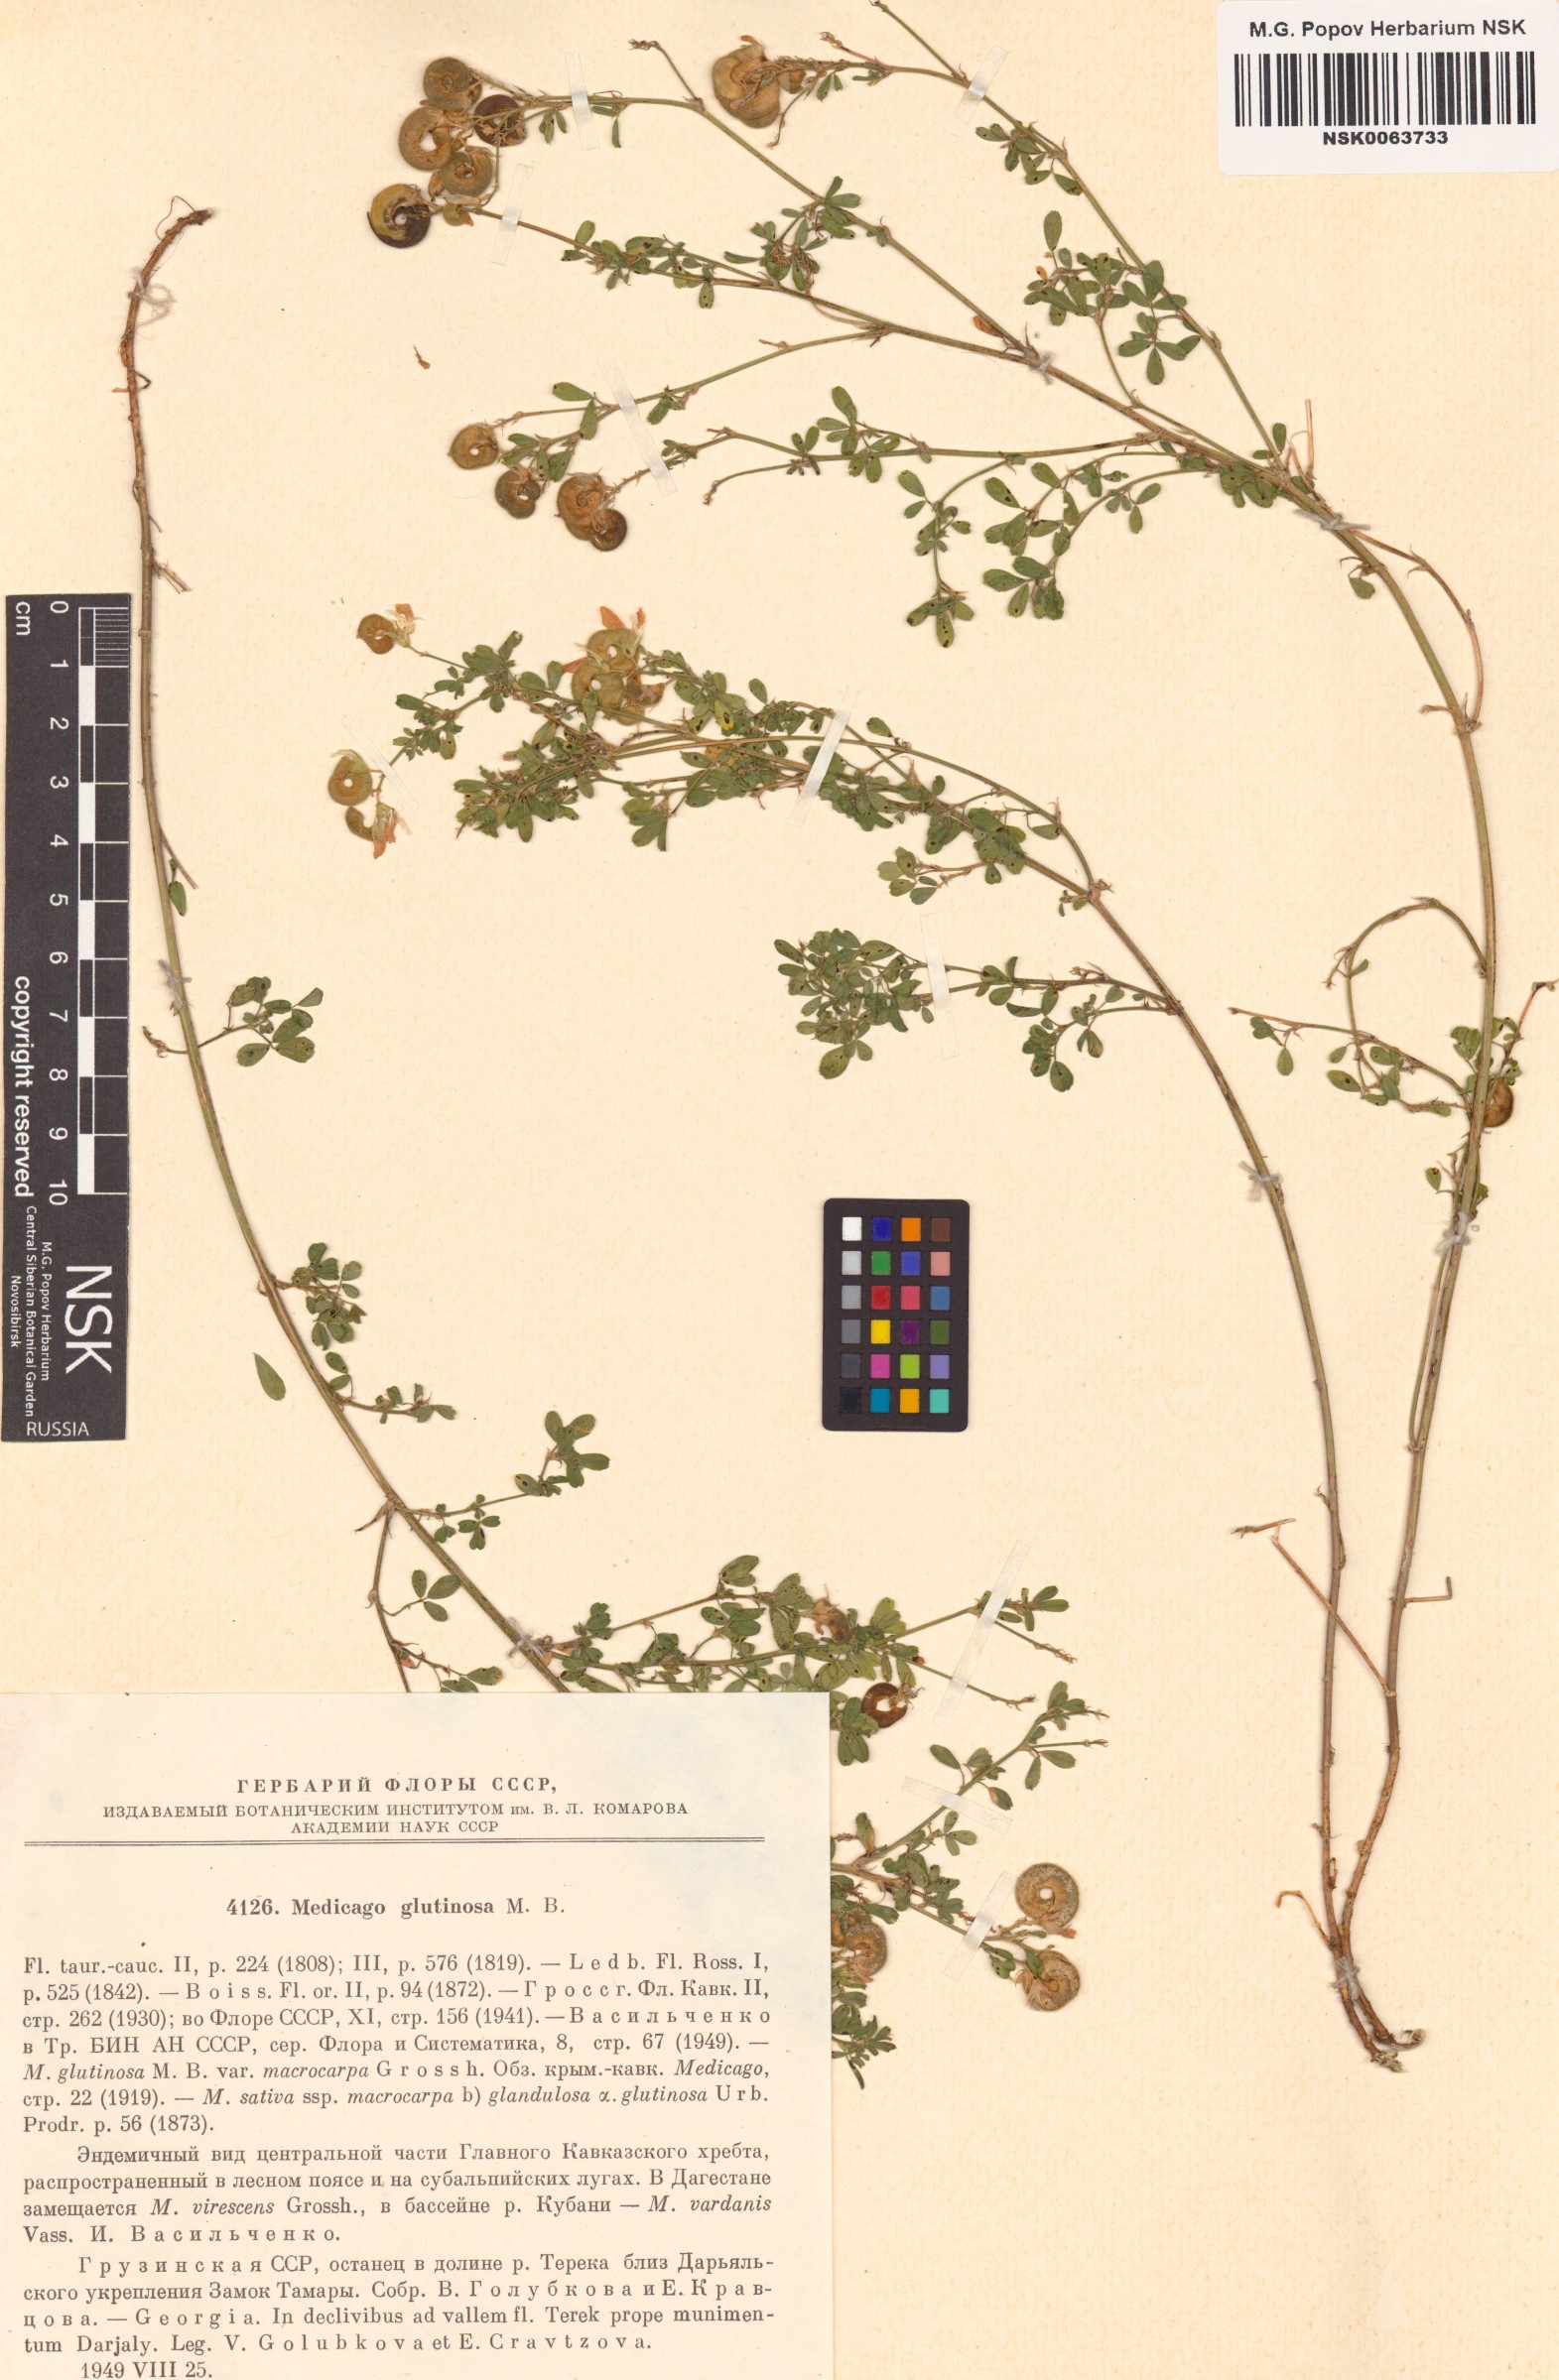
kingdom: Plantae
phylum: Tracheophyta
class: Magnoliopsida
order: Fabales
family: Fabaceae
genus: Medicago
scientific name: Medicago sativa
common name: Alfalfa
